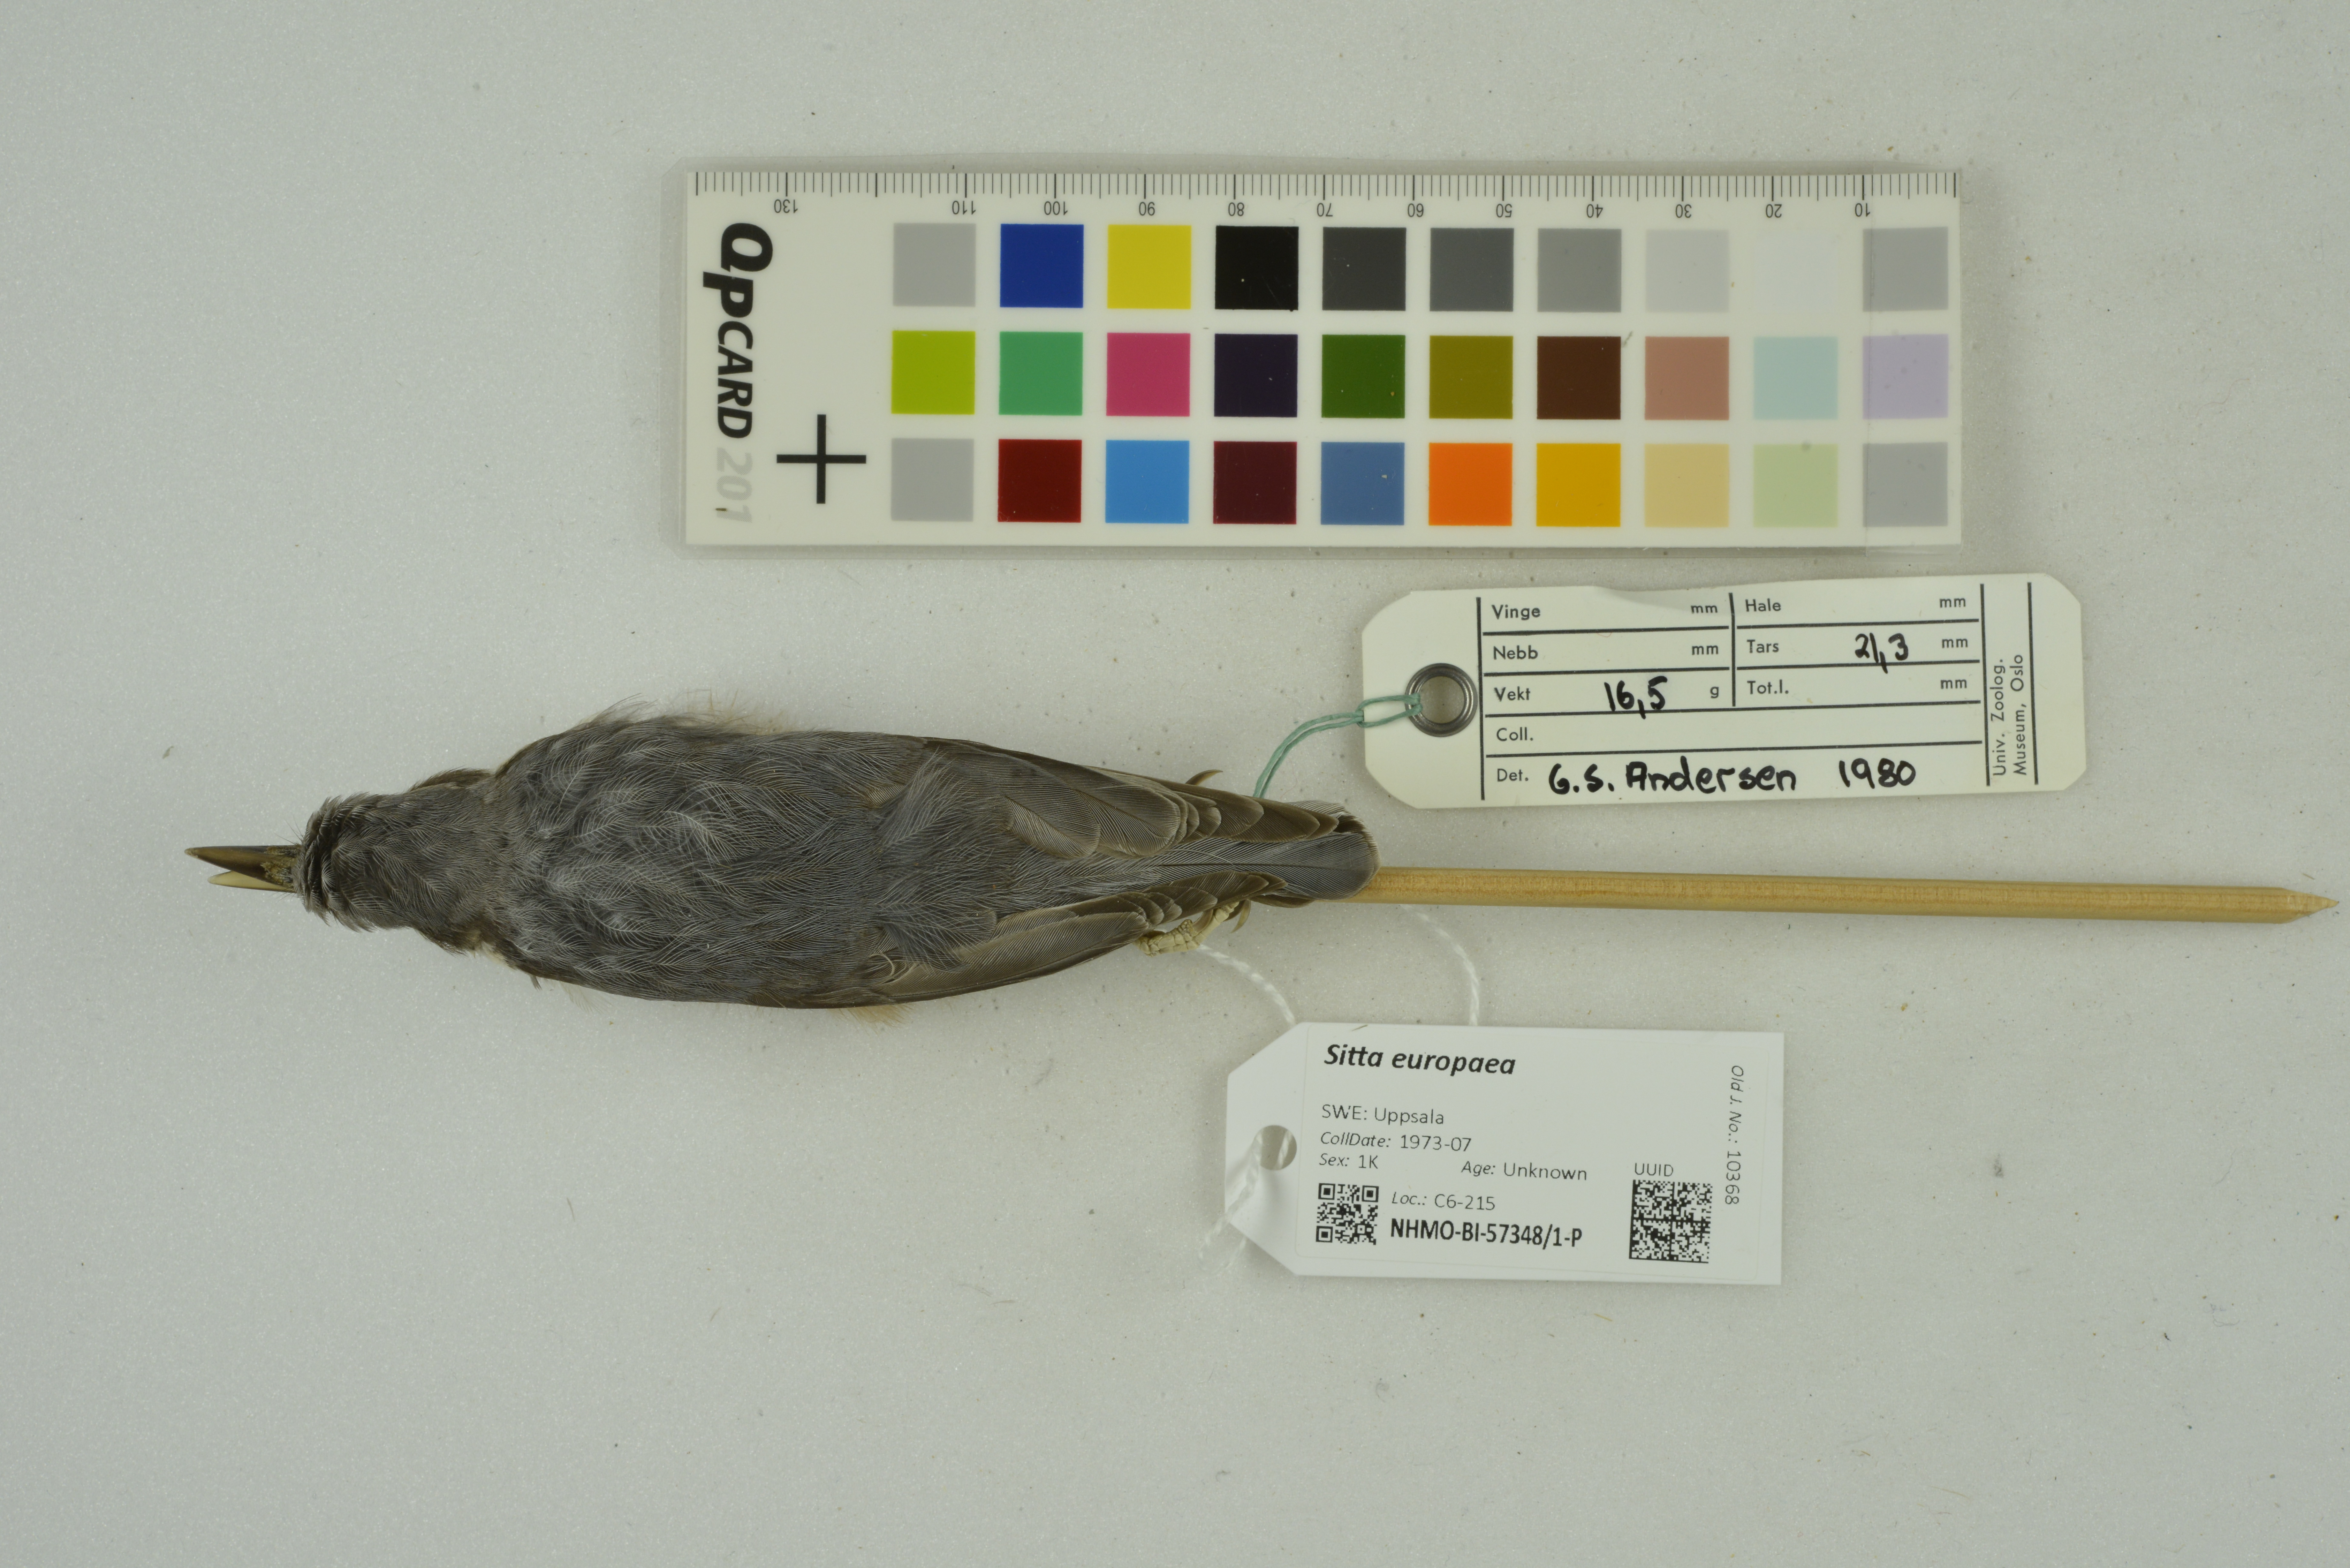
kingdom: Animalia
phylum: Chordata
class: Aves
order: Passeriformes
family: Sittidae
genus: Sitta
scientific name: Sitta europaea
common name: Eurasian nuthatch
